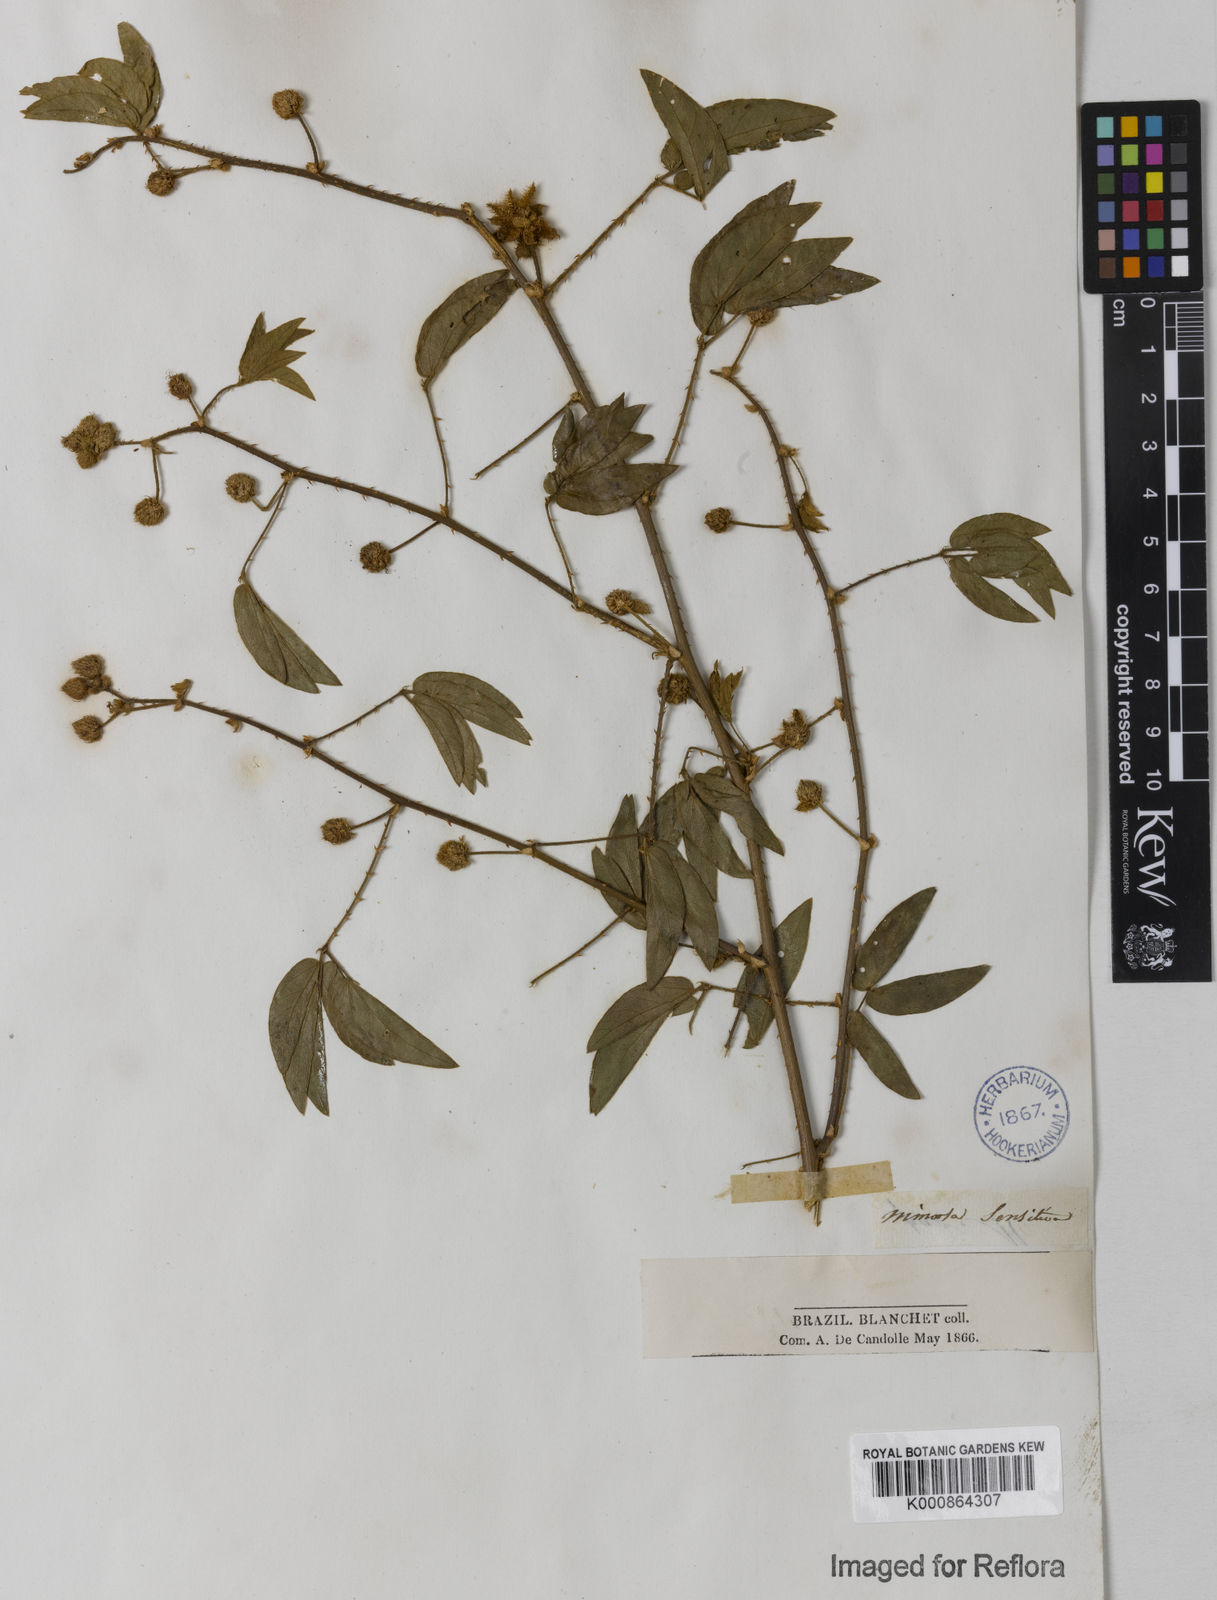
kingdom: Plantae
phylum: Tracheophyta
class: Magnoliopsida
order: Fabales
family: Fabaceae
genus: Mimosa
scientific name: Mimosa sensitiva
